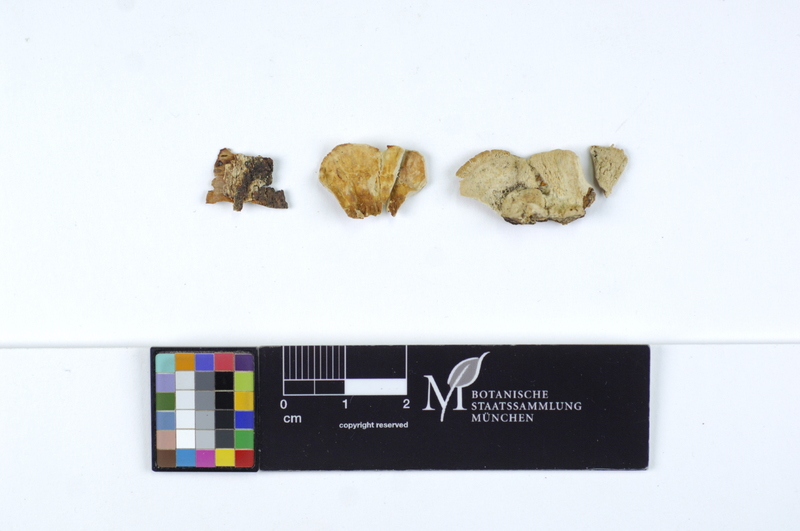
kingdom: Plantae
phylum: Tracheophyta
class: Magnoliopsida
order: Fagales
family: Betulaceae
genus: Betula
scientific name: Betula
